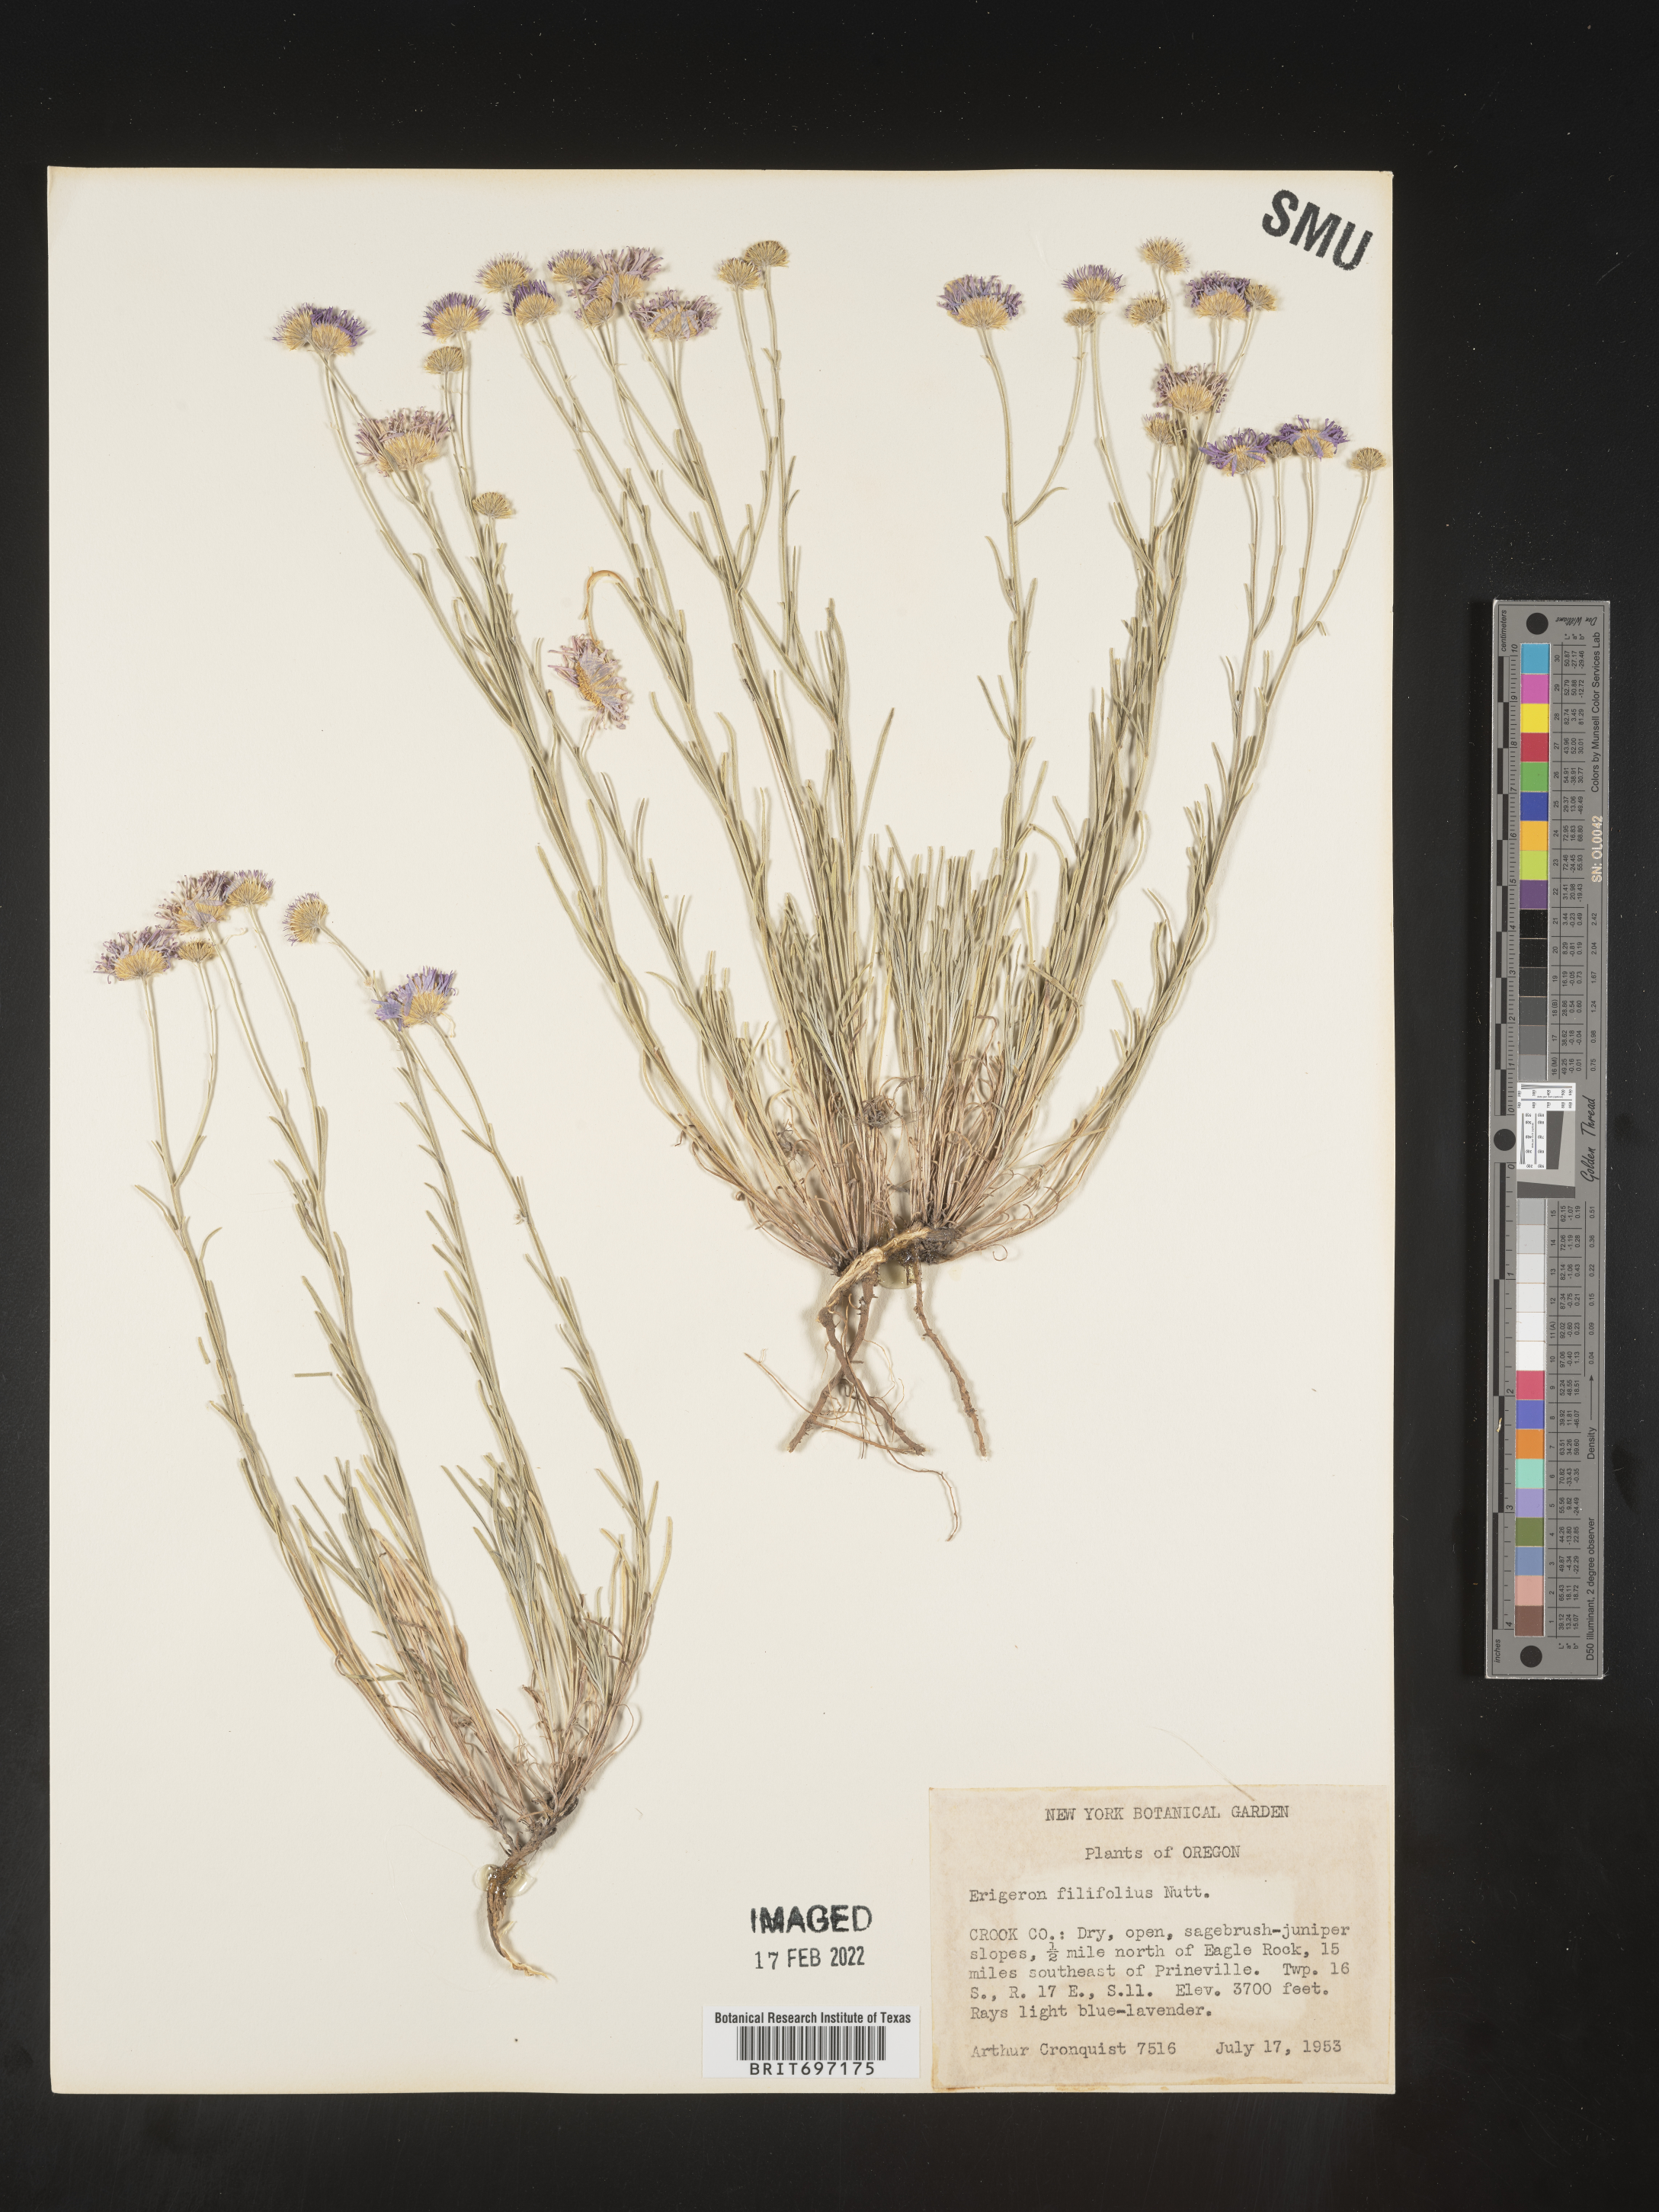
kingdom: Plantae
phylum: Tracheophyta
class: Magnoliopsida
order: Asterales
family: Asteraceae
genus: Erigeron
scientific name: Erigeron filifolius
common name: Threadleaf fleabane
